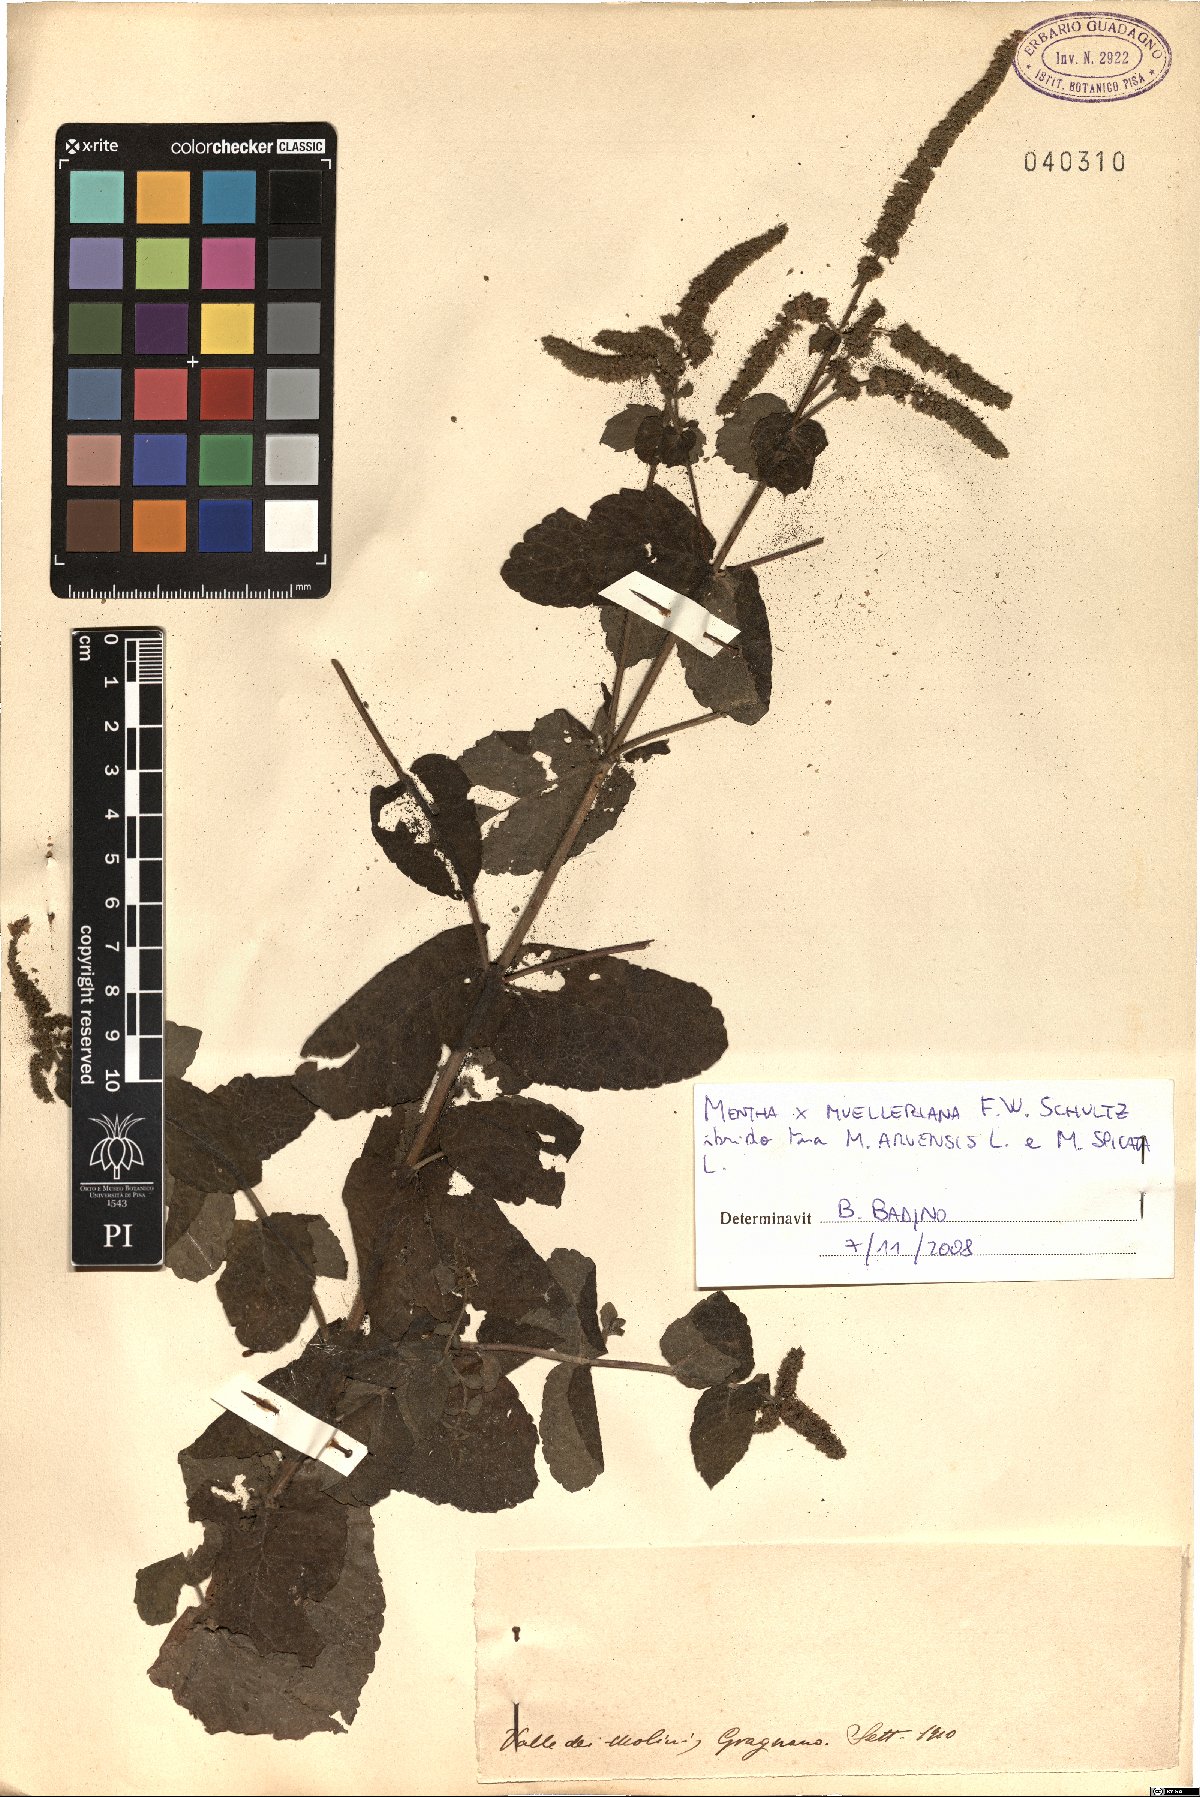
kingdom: Plantae
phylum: Tracheophyta
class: Magnoliopsida
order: Lamiales
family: Lamiaceae
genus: Mentha
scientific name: Mentha carinthiaca
